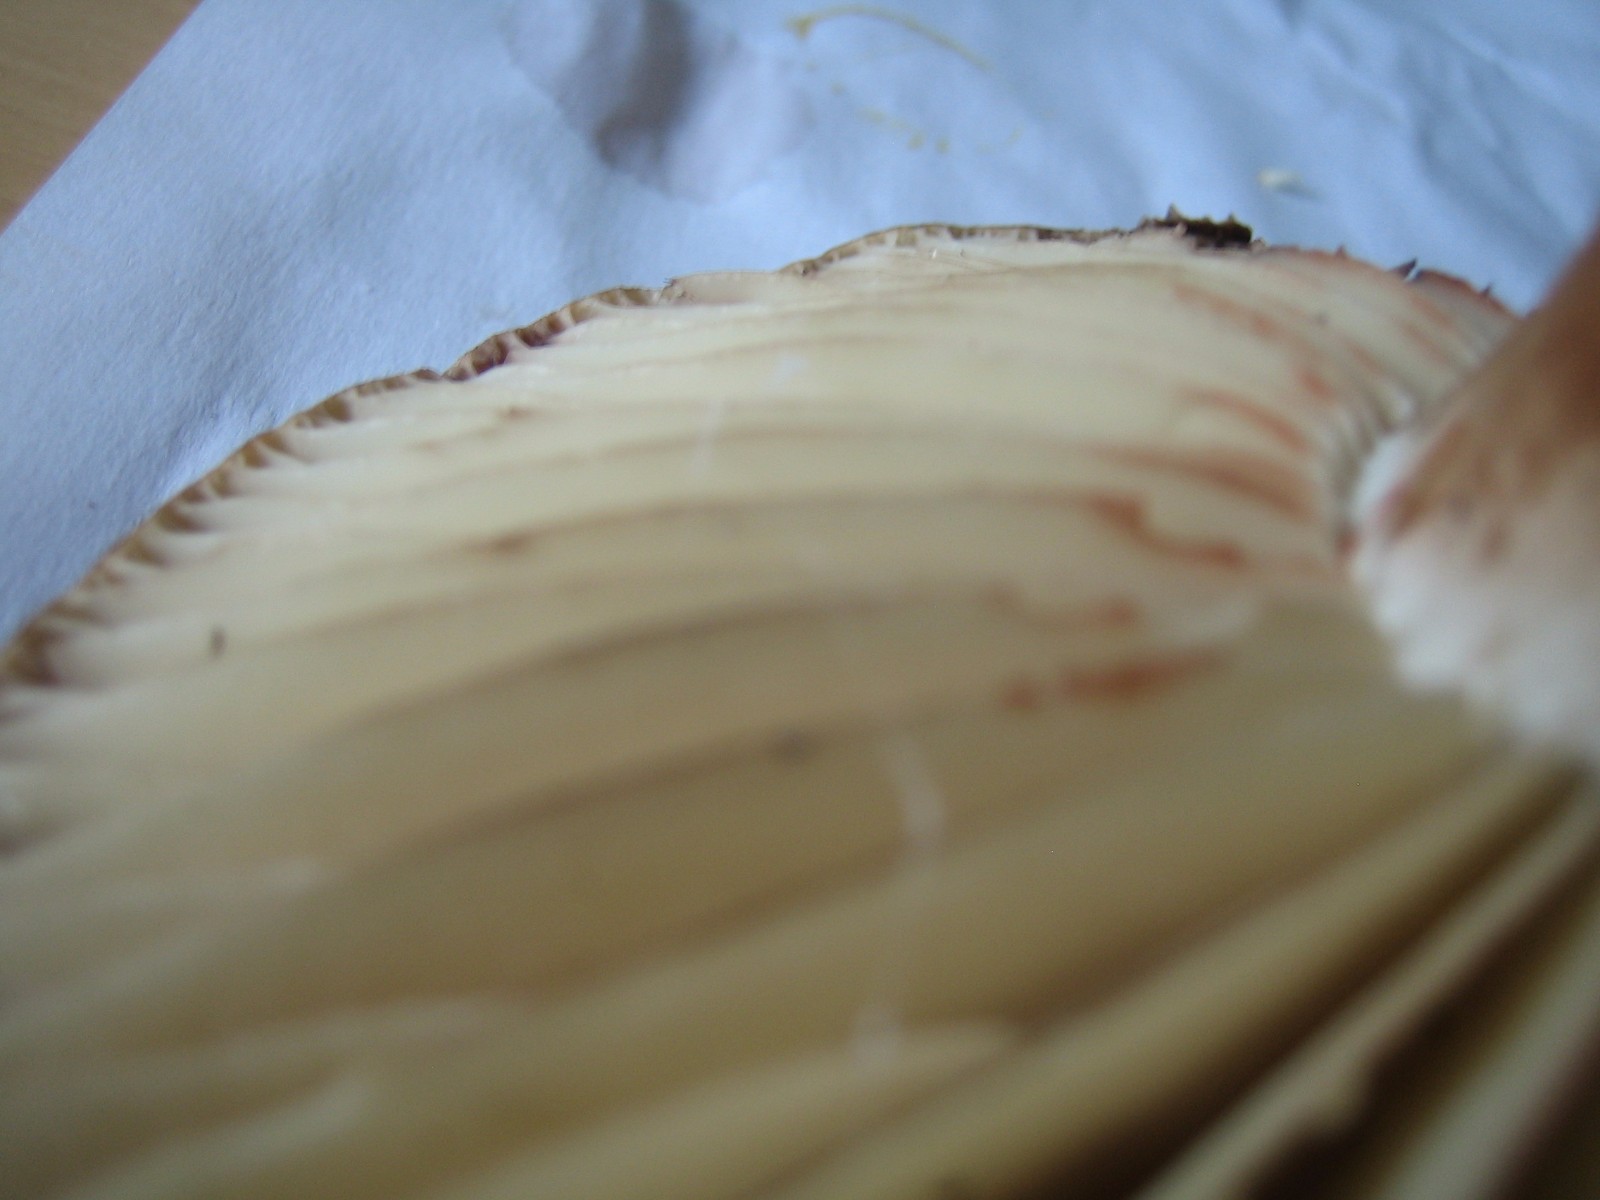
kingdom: Fungi
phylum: Basidiomycota
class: Agaricomycetes
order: Russulales
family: Russulaceae
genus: Russula
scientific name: Russula adusta
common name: sværtende skørhat
